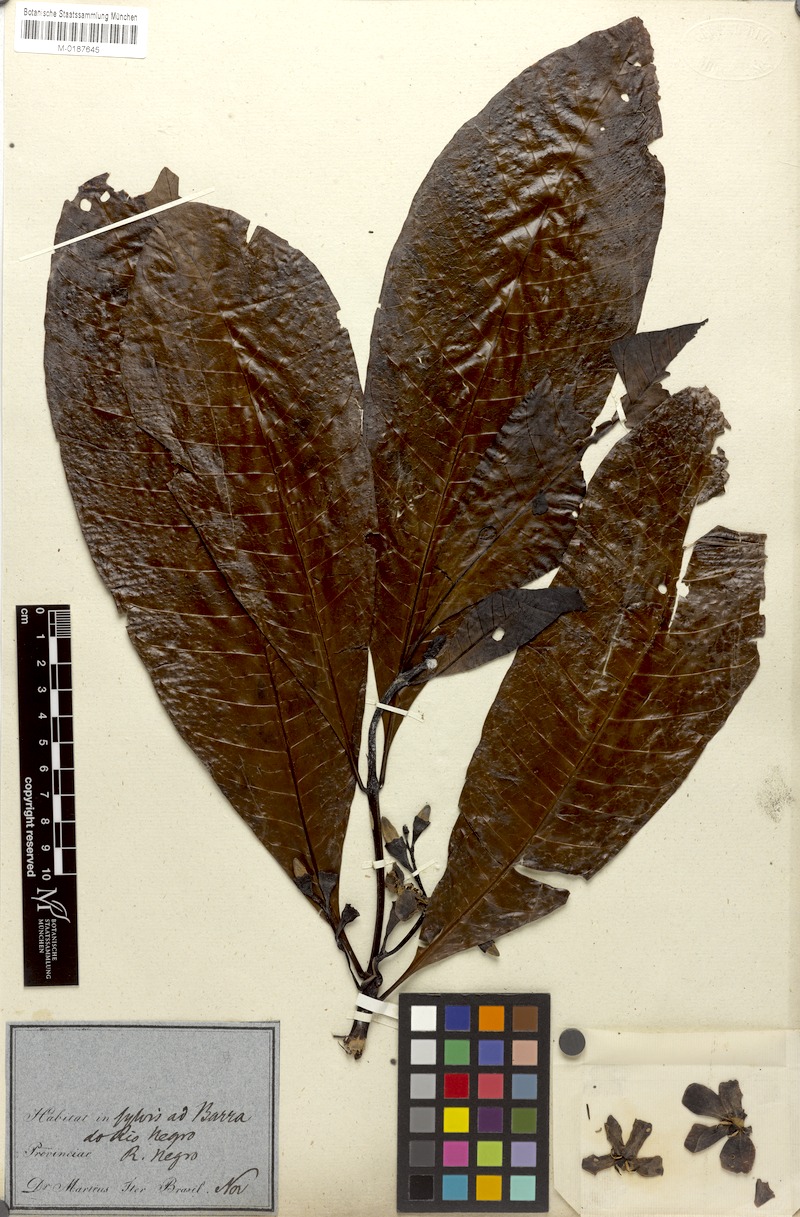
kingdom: Plantae
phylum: Tracheophyta
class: Magnoliopsida
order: Gentianales
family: Rubiaceae
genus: Genipa
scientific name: Genipa americana
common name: Genipap
